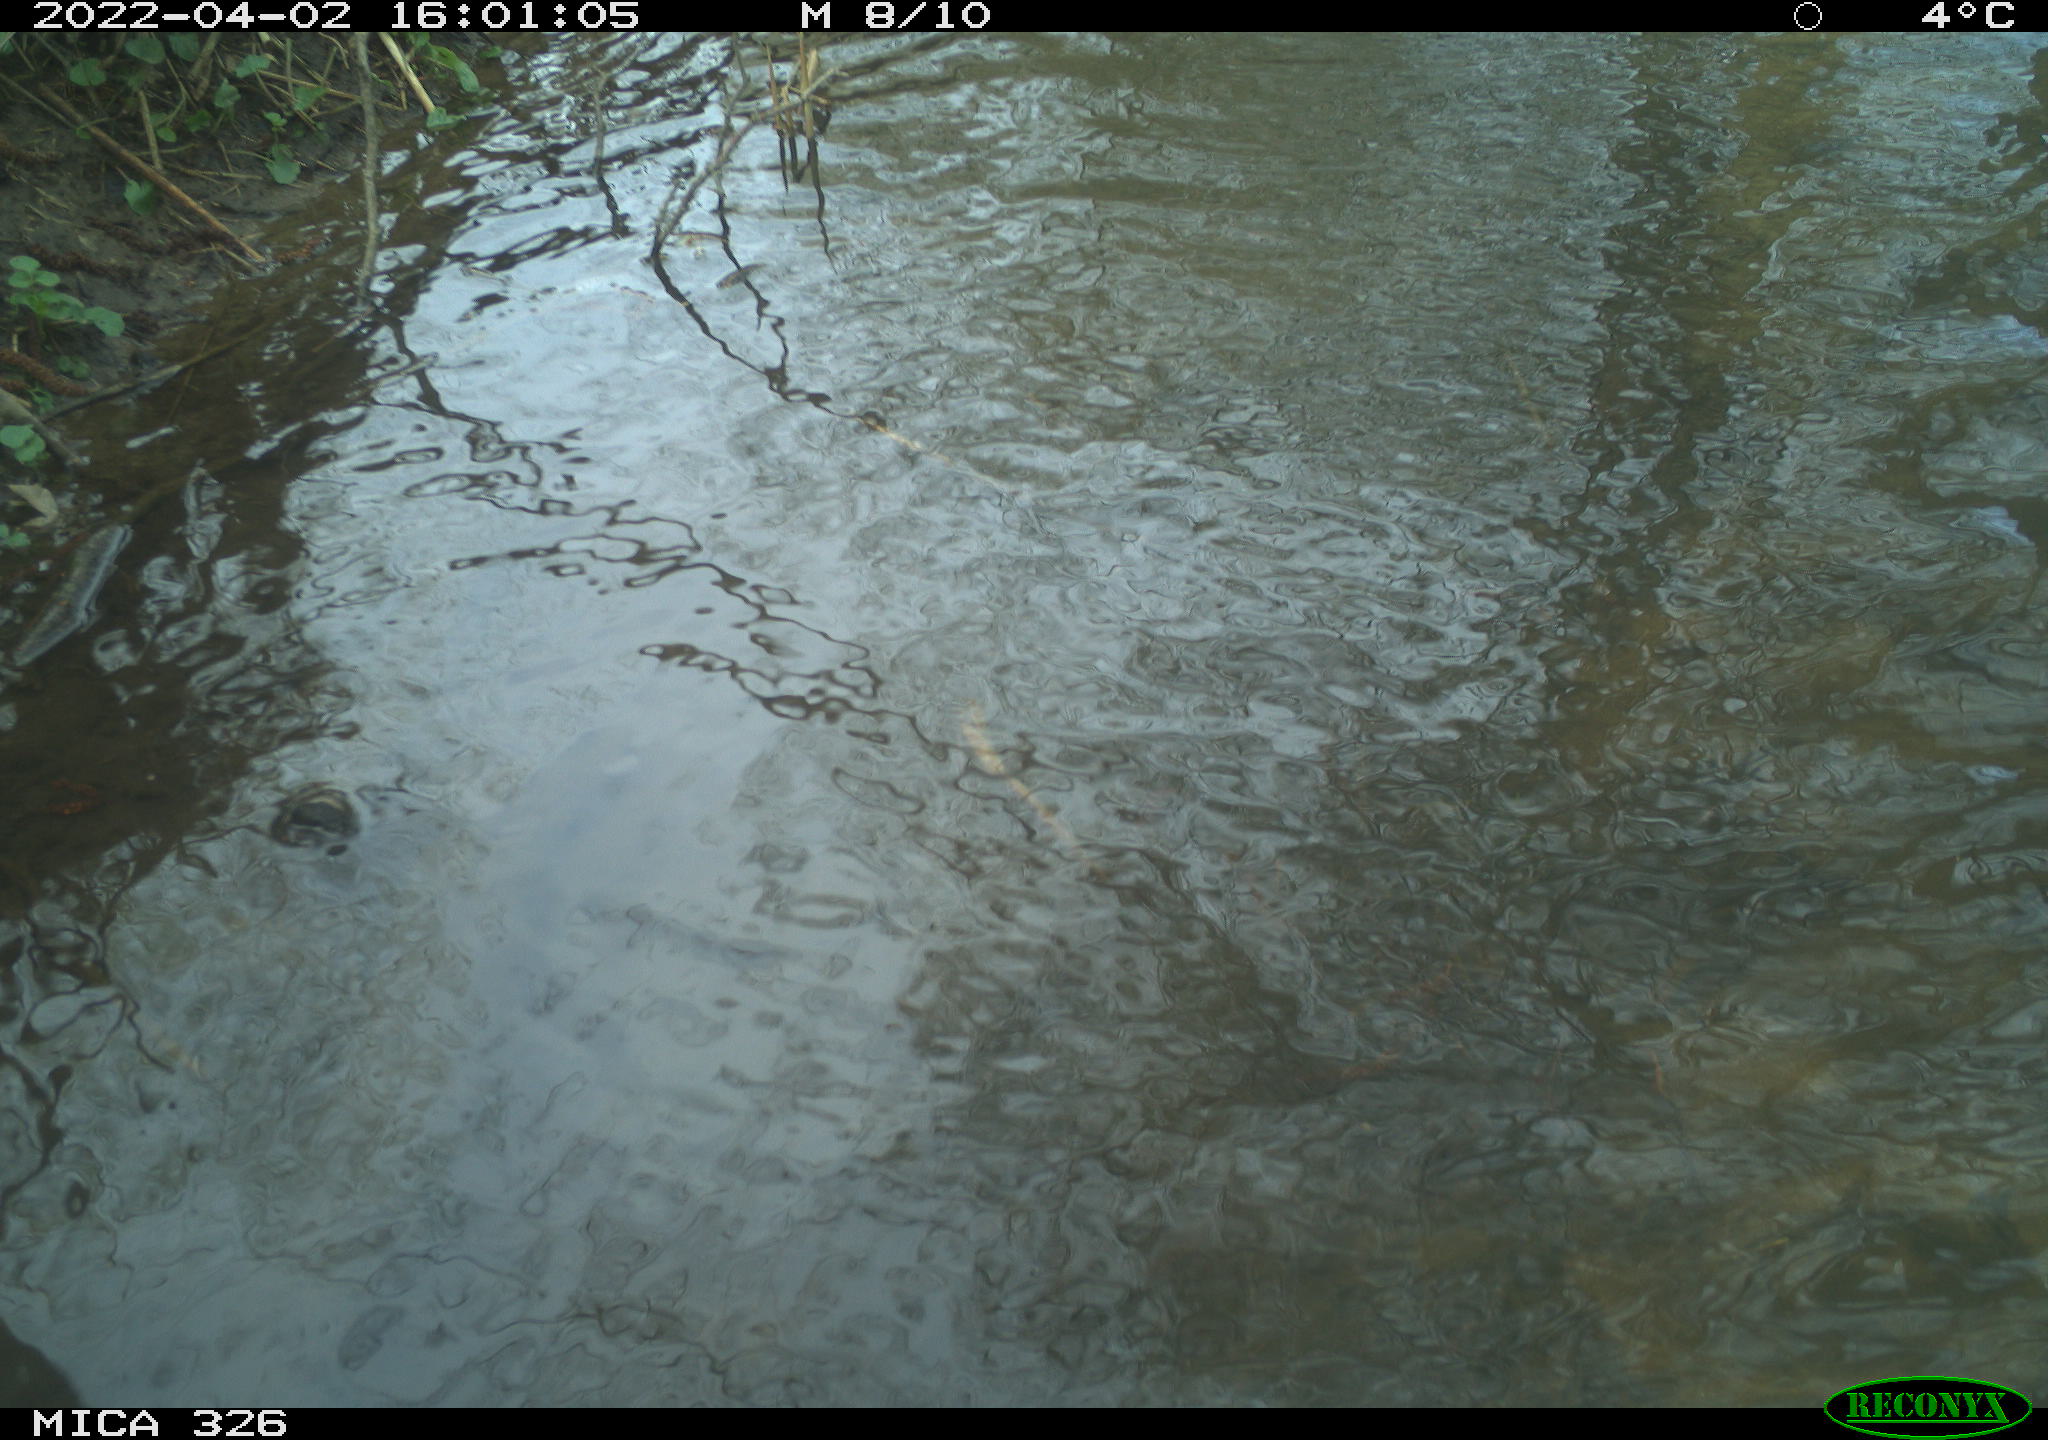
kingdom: Animalia
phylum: Chordata
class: Mammalia
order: Rodentia
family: Cricetidae
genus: Ondatra
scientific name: Ondatra zibethicus
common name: Muskrat
